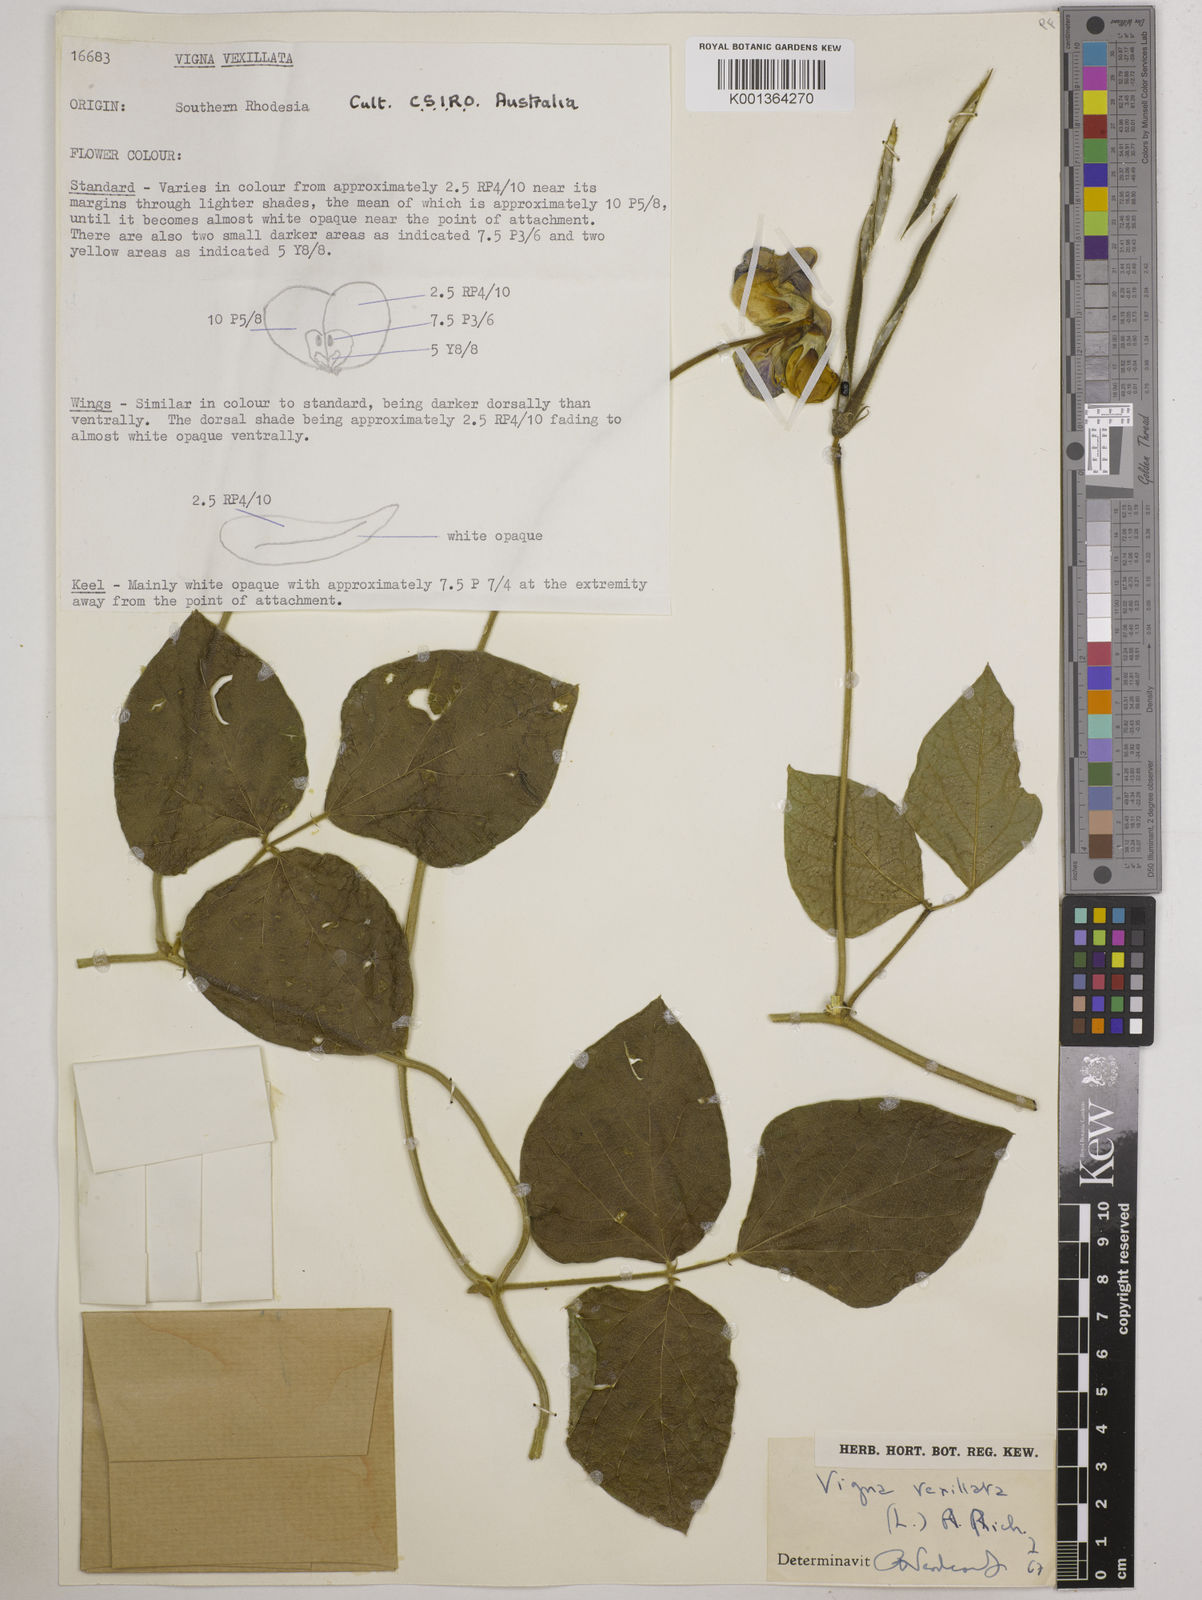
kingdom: Plantae
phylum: Tracheophyta
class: Magnoliopsida
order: Fabales
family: Fabaceae
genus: Vigna
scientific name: Vigna vexillata
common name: Zombi pea
